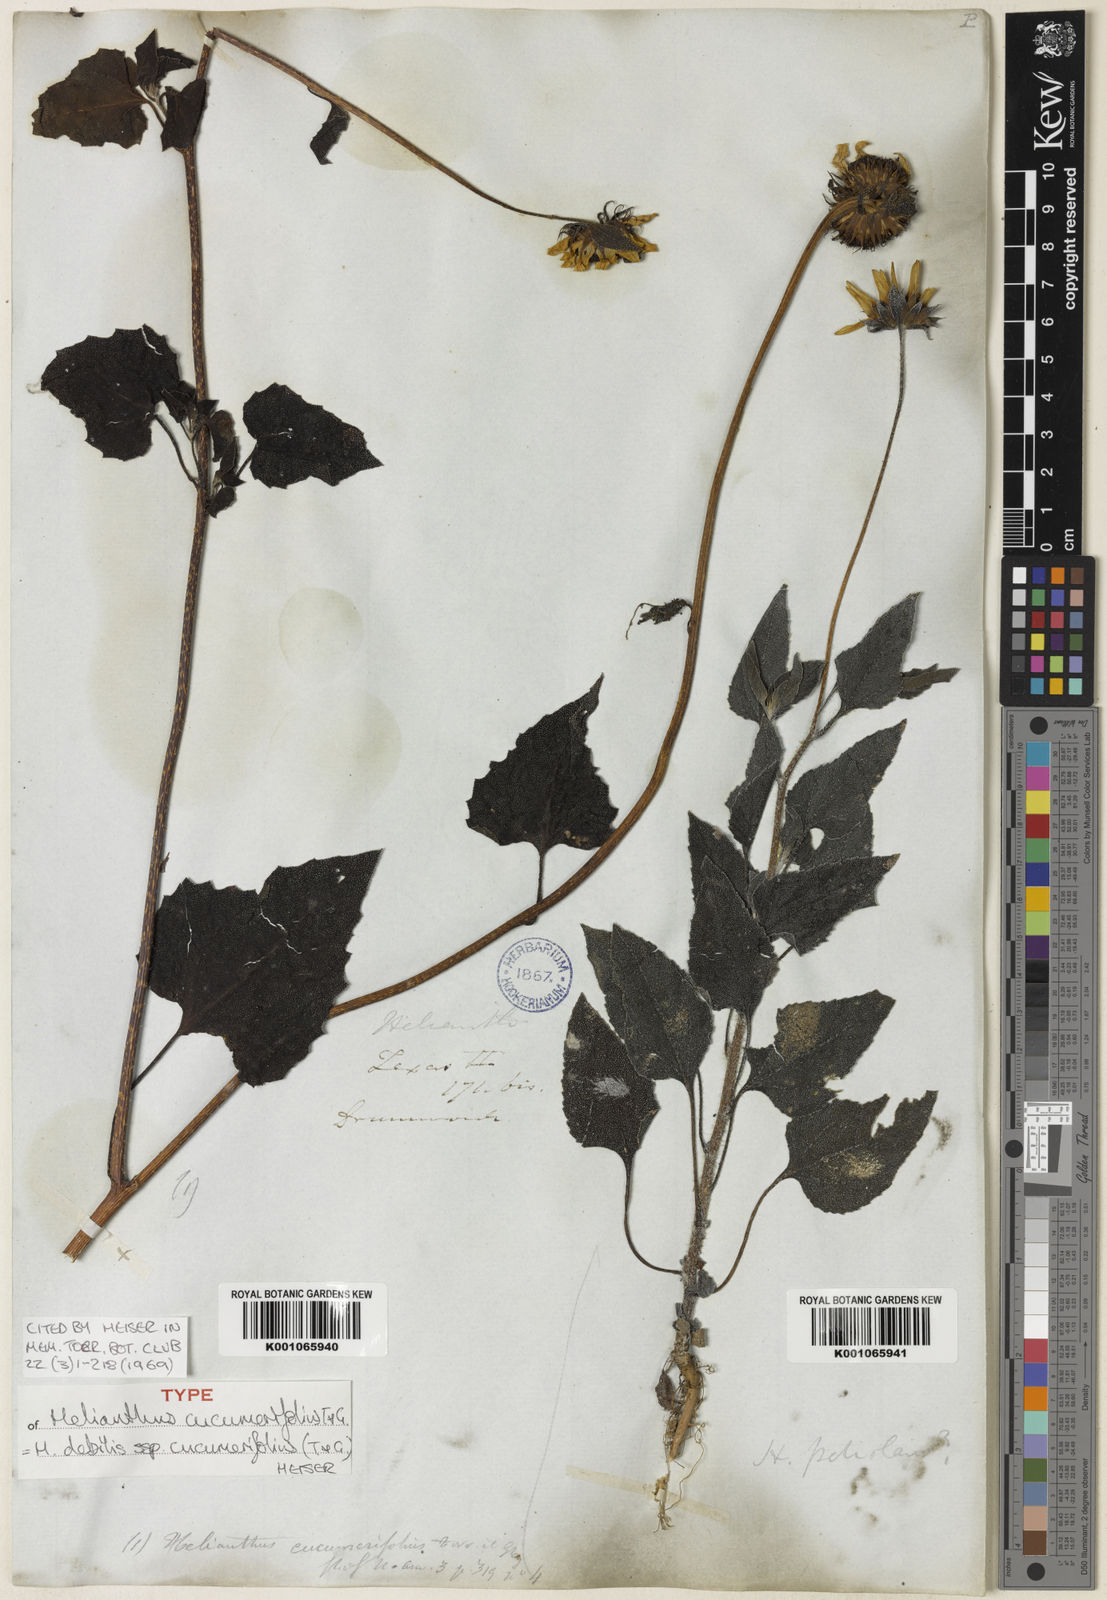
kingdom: Plantae
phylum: Tracheophyta
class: Magnoliopsida
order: Asterales
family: Asteraceae
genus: Helianthus
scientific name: Helianthus debilis
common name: Weak sunflower
